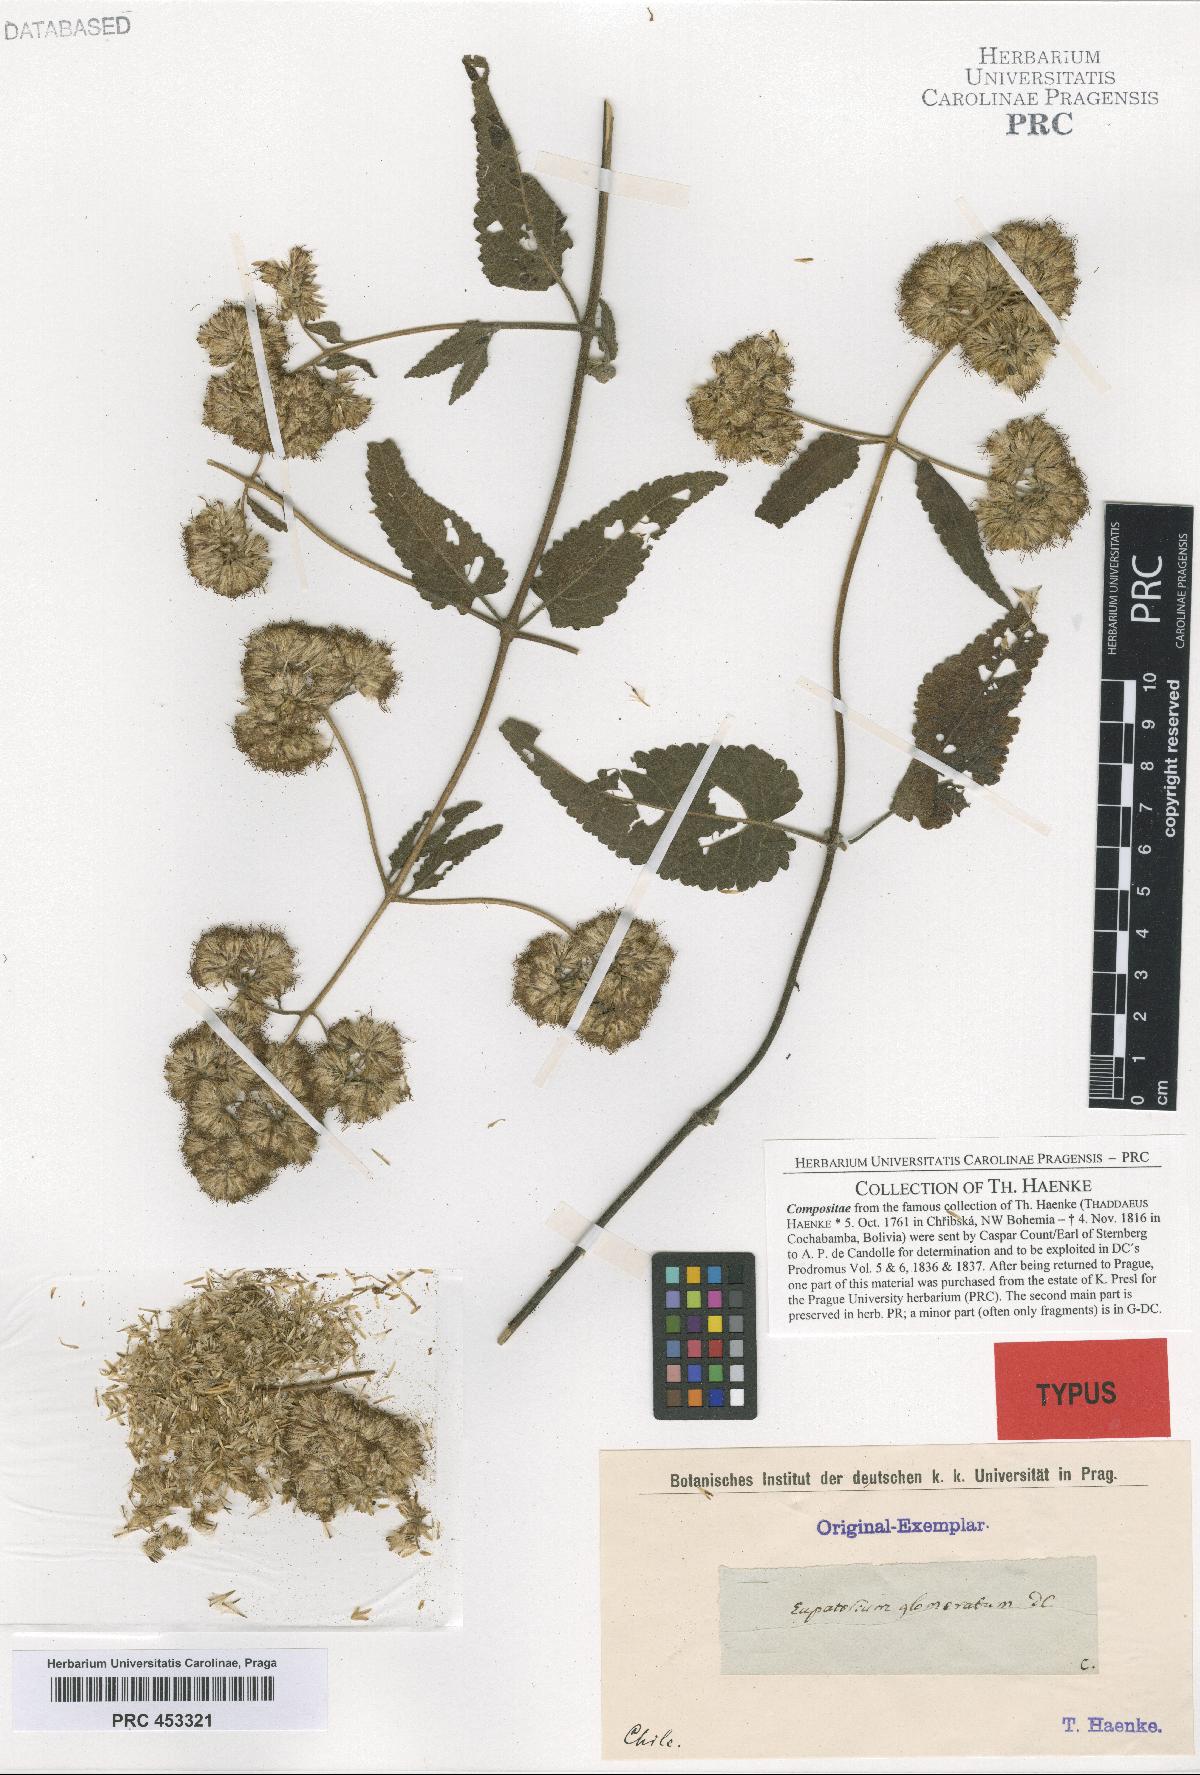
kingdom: Plantae
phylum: Tracheophyta
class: Magnoliopsida
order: Asterales
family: Asteraceae
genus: Cronquistianthus
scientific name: Cronquistianthus glomeratus
